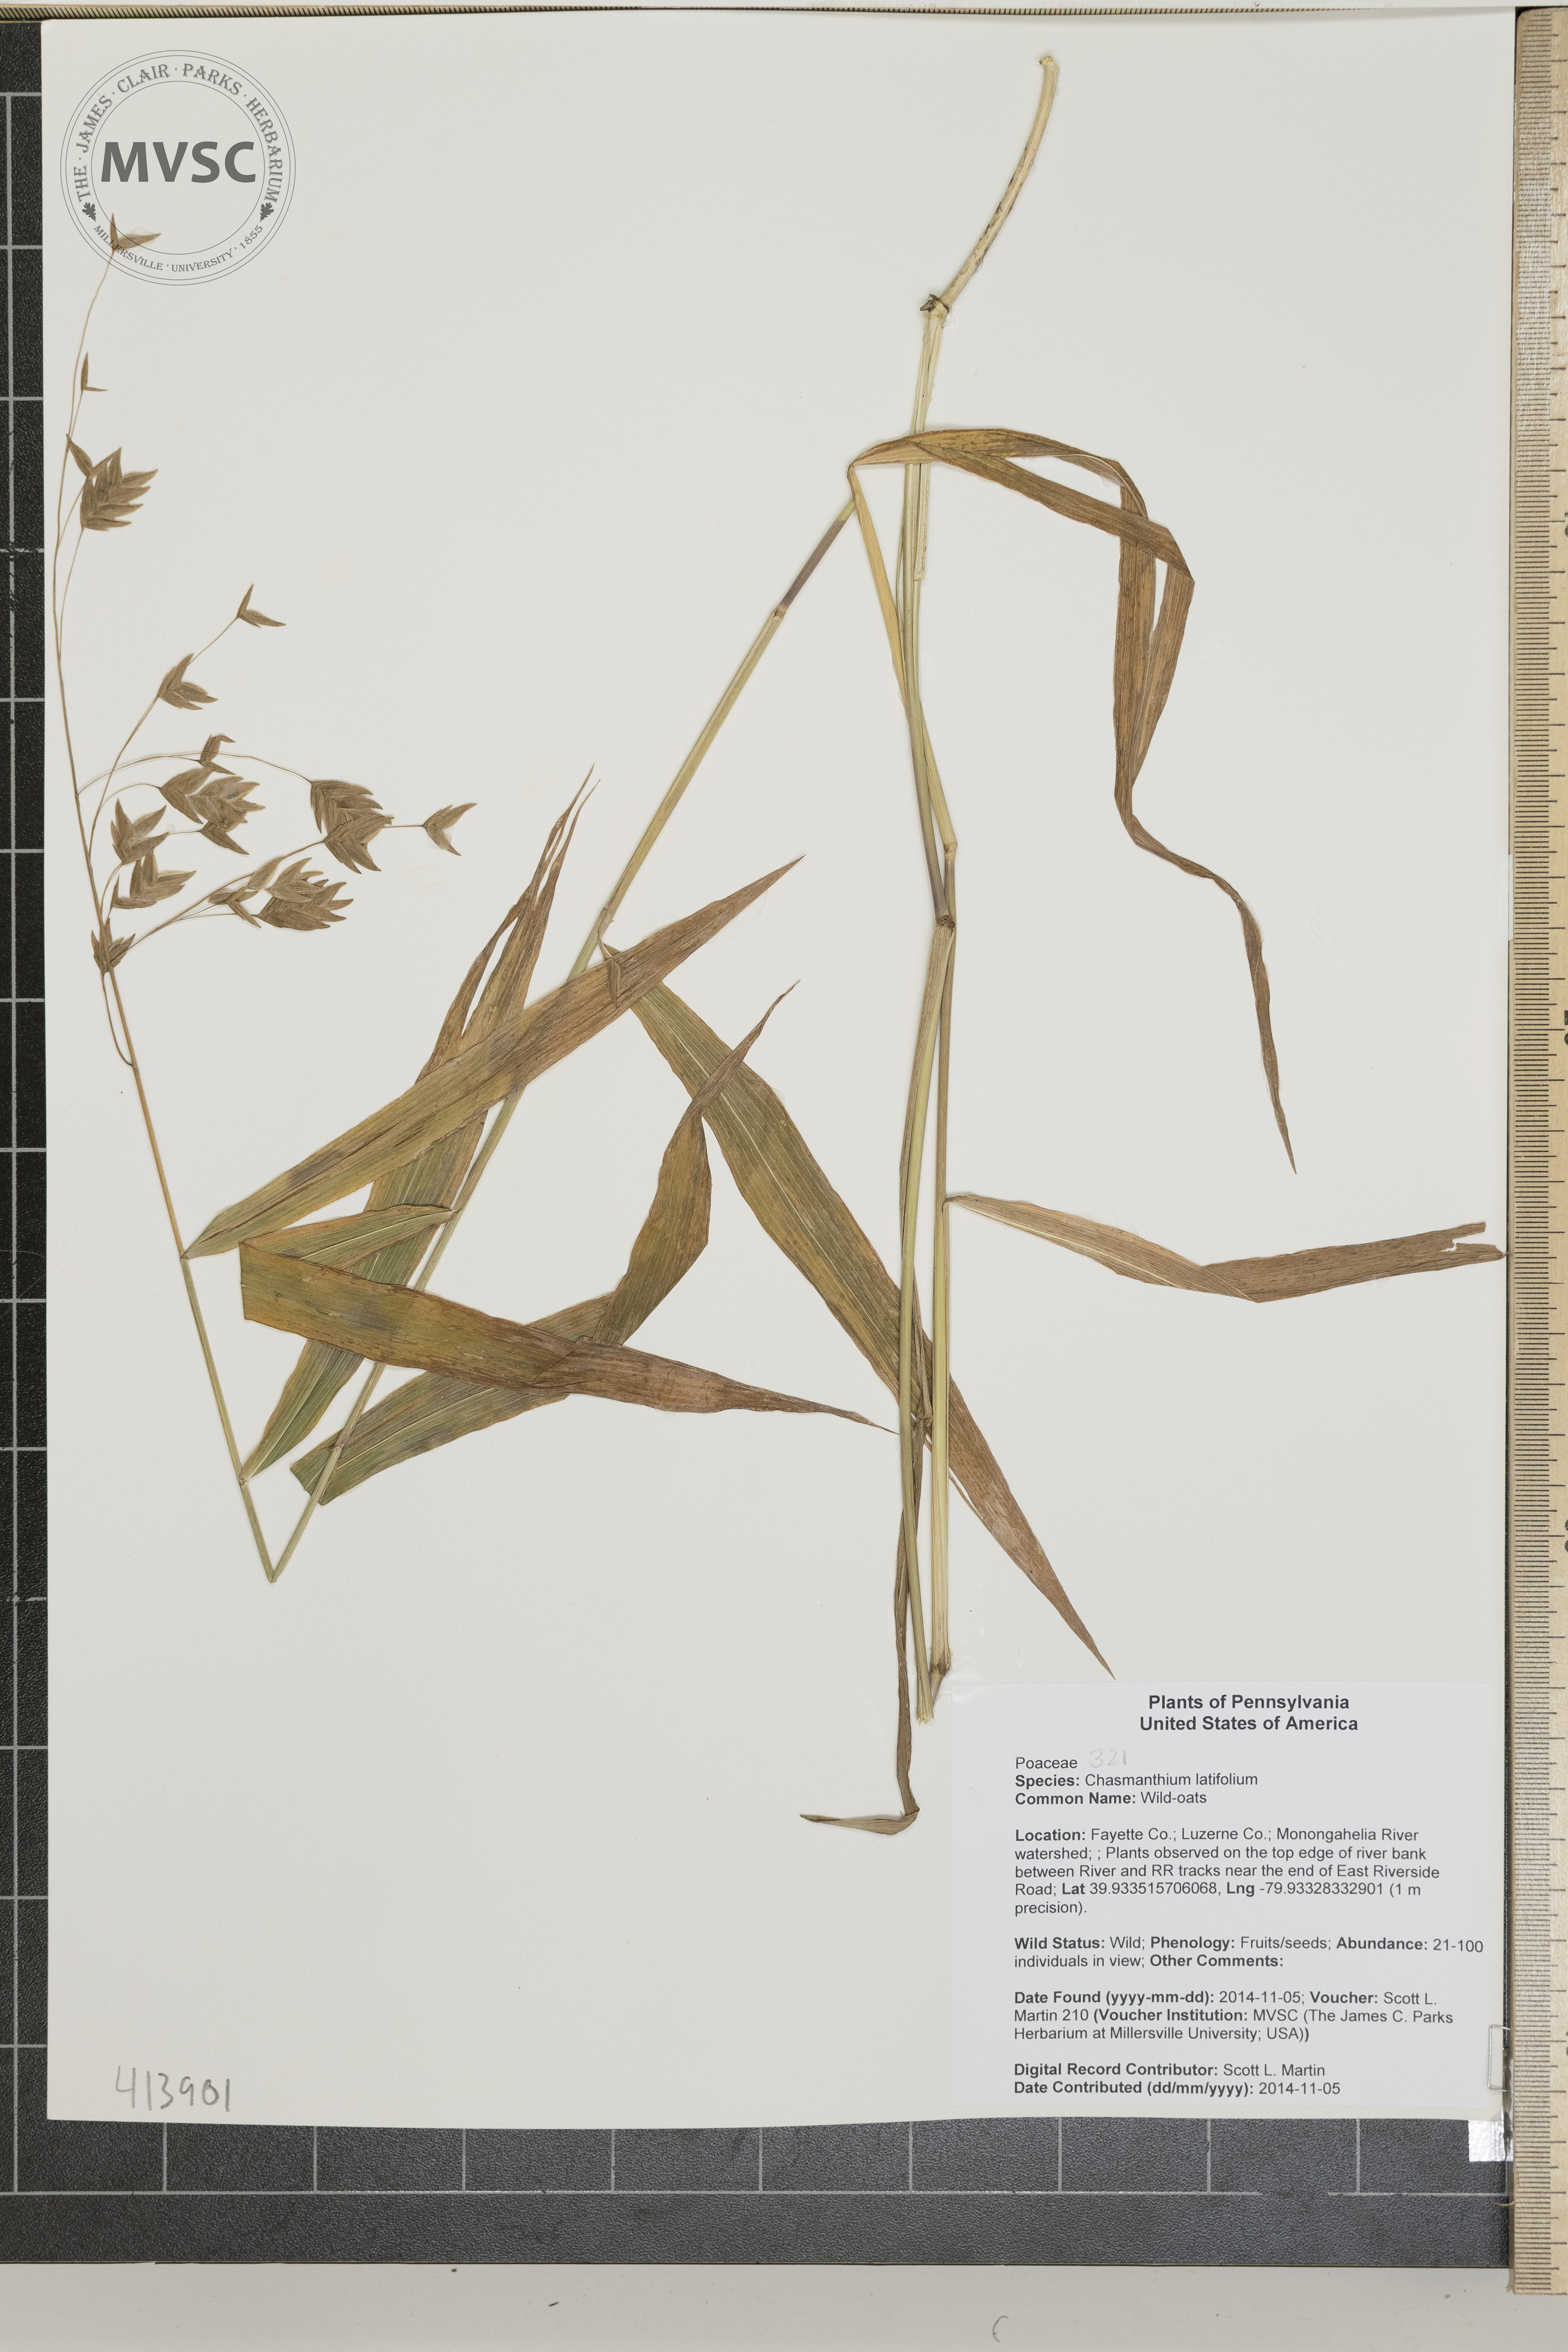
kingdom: Plantae
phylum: Tracheophyta
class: Liliopsida
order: Poales
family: Poaceae
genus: Chasmanthium
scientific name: Chasmanthium latifolium
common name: Wild-oats
